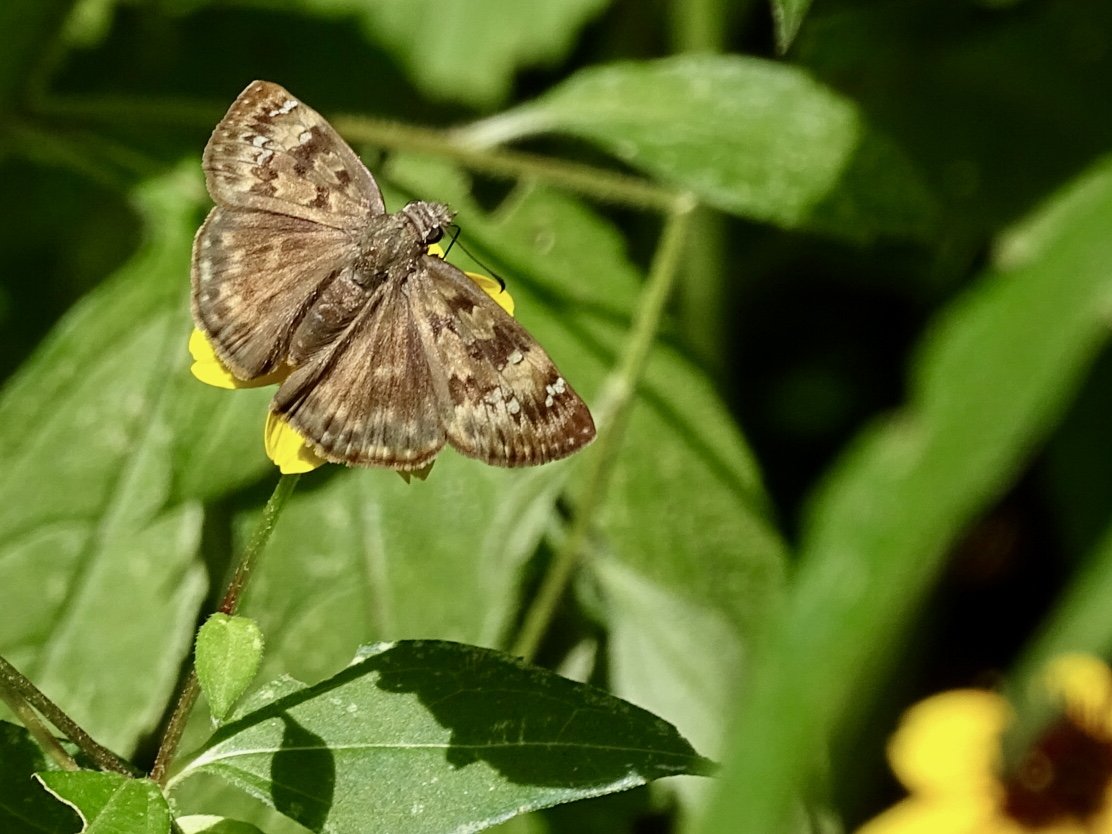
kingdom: Animalia
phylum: Arthropoda
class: Insecta
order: Lepidoptera
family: Hesperiidae
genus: Gesta
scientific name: Gesta
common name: Horace's Duskywing
